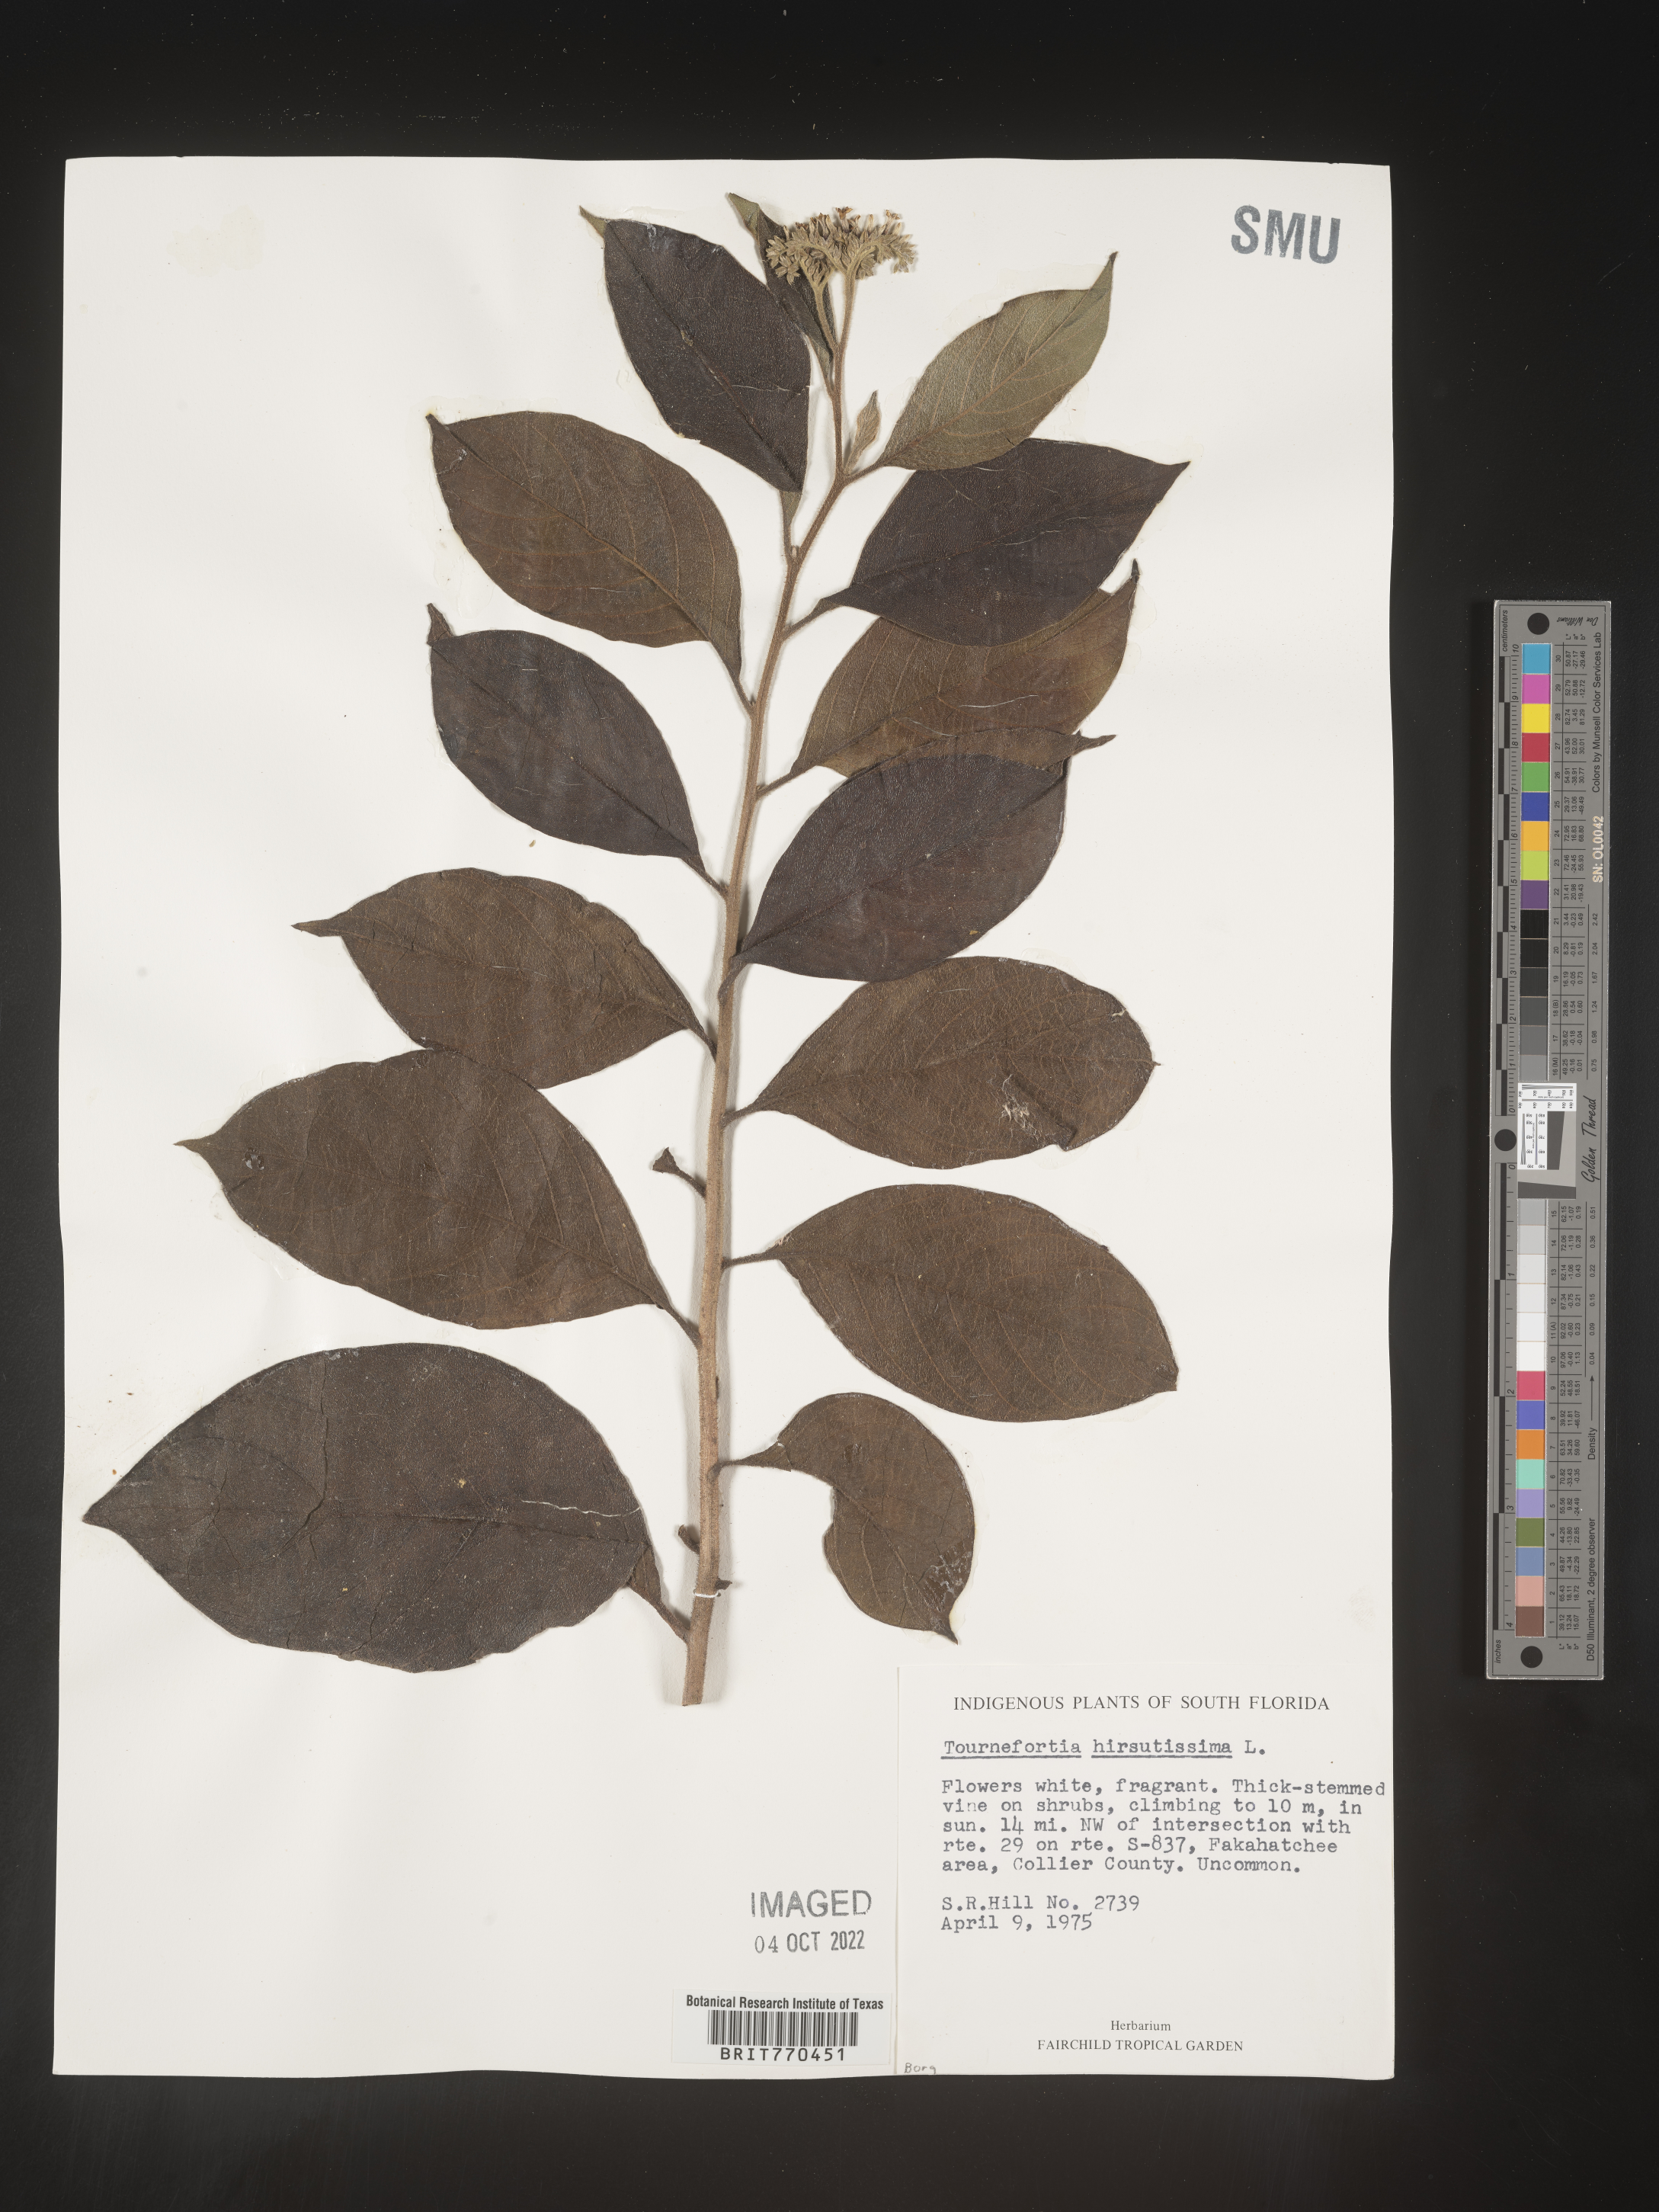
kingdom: Plantae
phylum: Tracheophyta
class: Magnoliopsida
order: Boraginales
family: Heliotropiaceae
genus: Tournefortia
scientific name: Tournefortia
